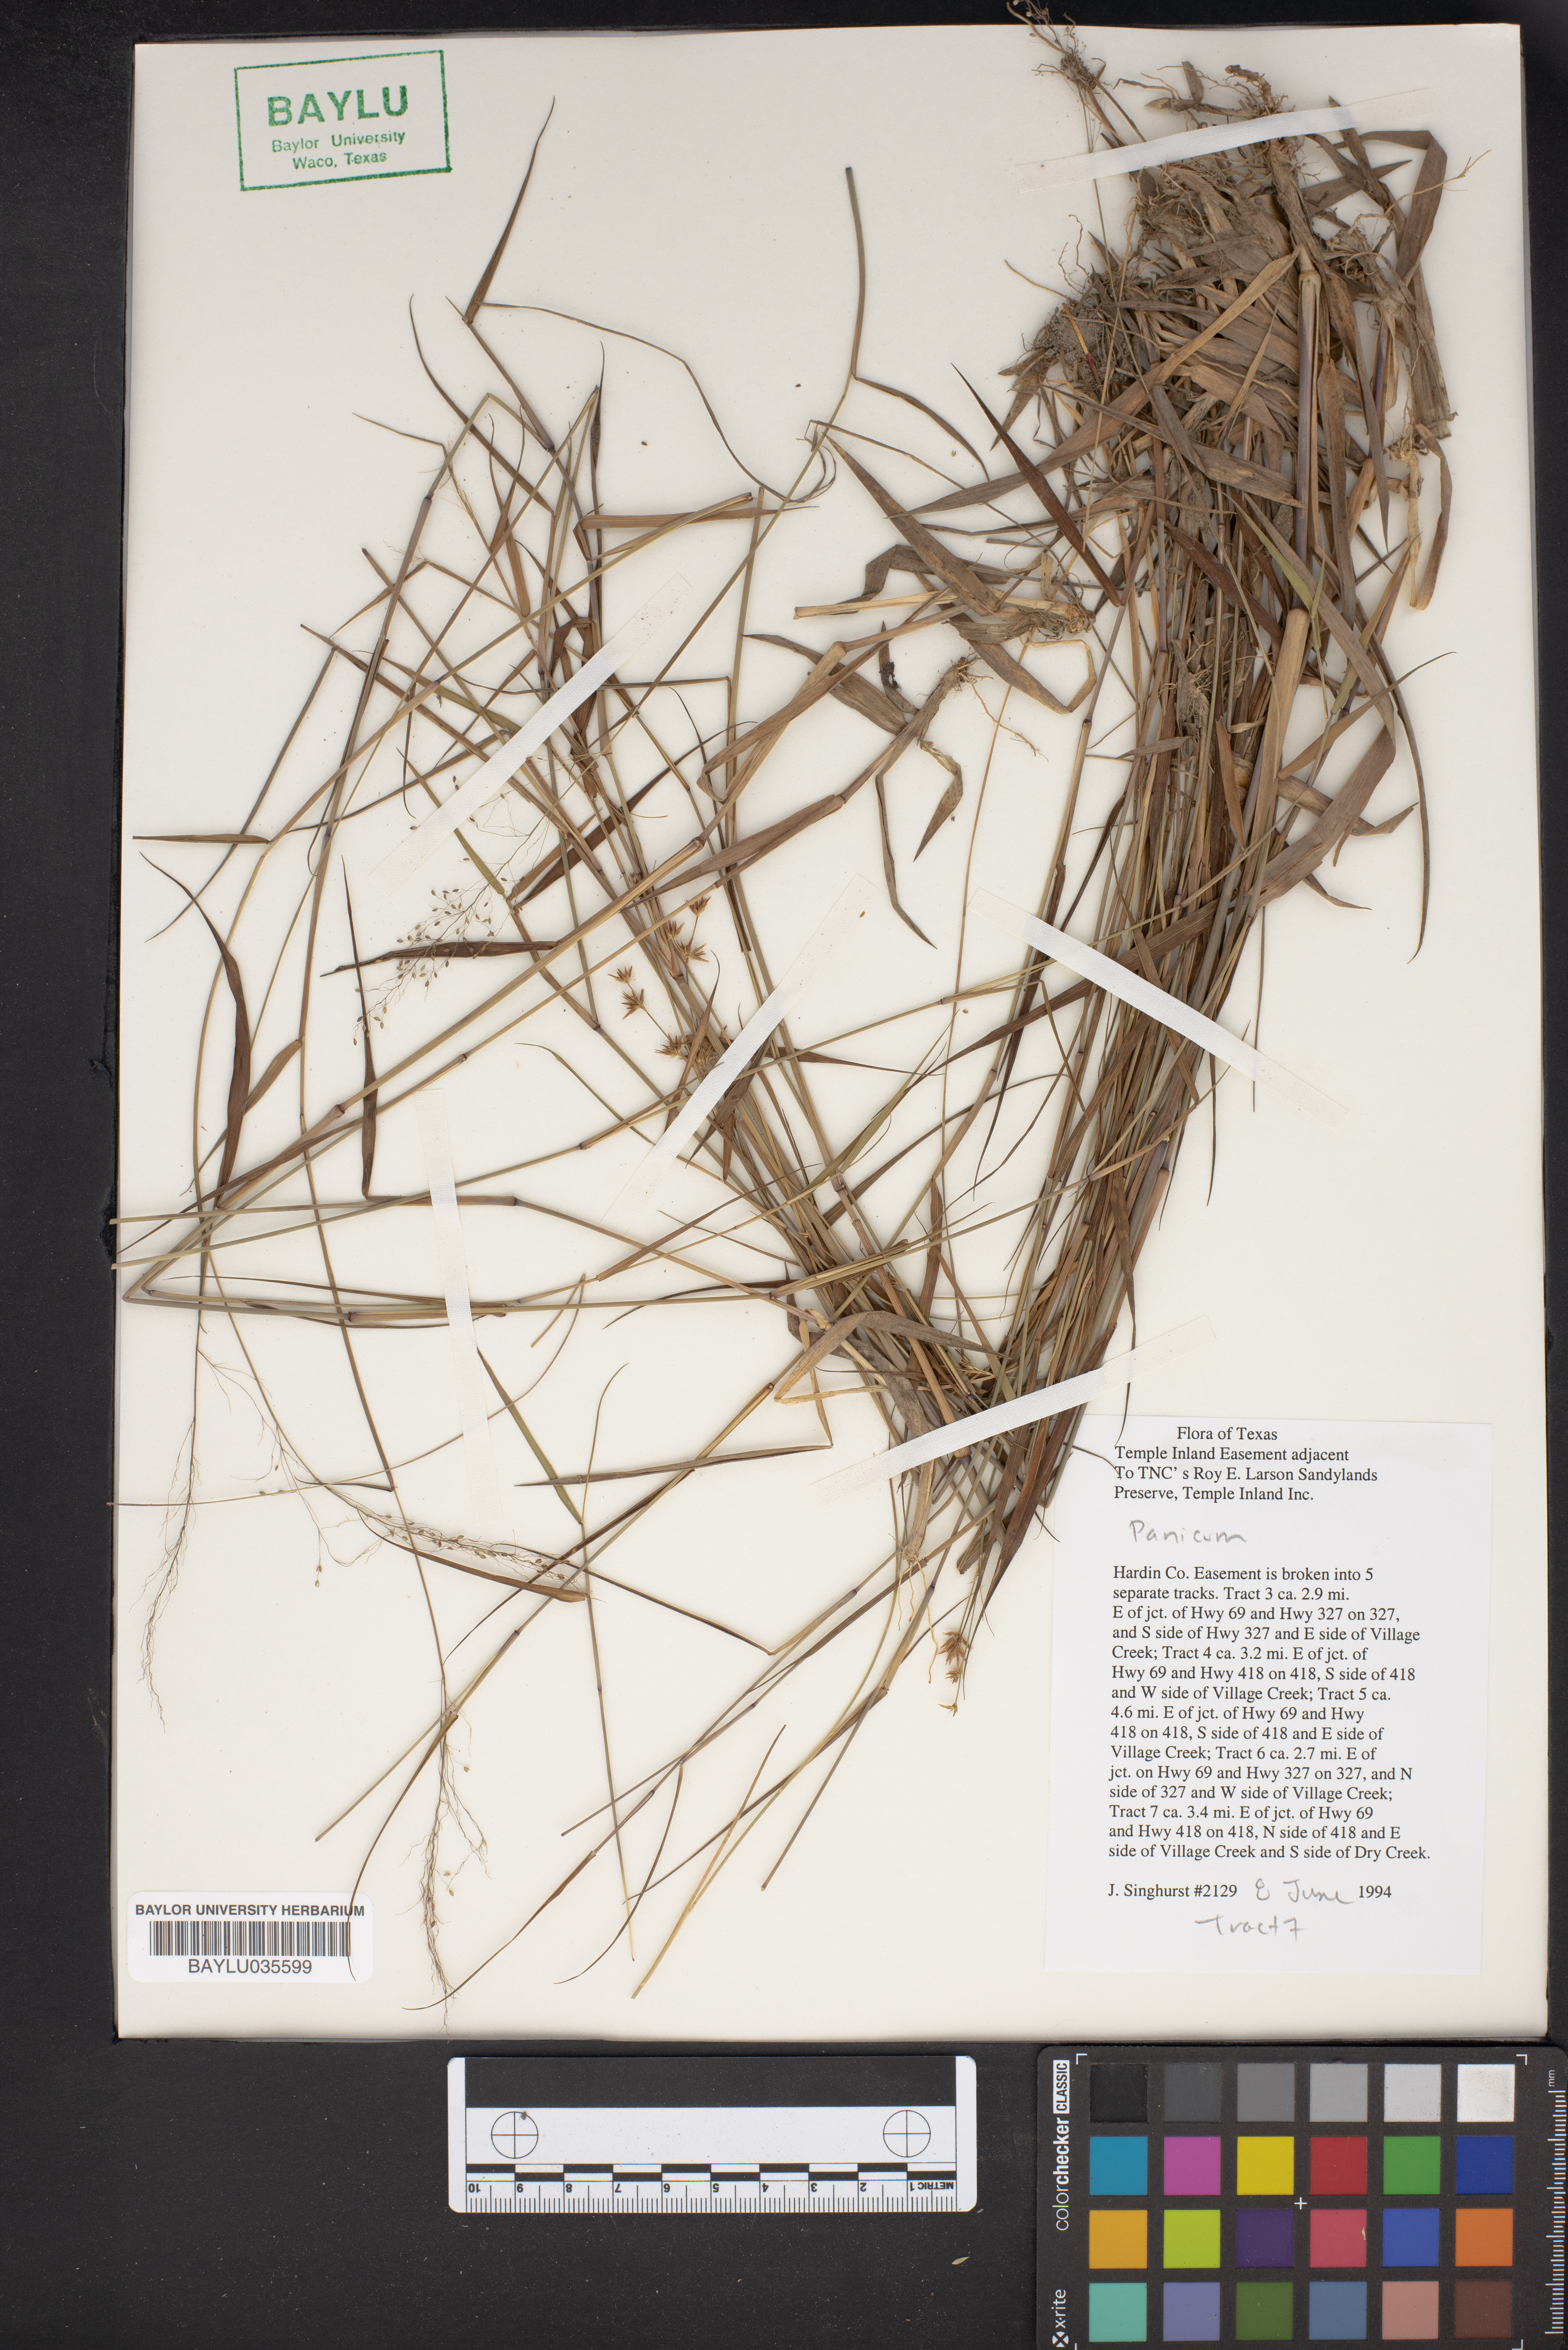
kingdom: Plantae
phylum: Tracheophyta
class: Liliopsida
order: Poales
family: Poaceae
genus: Panicum
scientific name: Panicum
